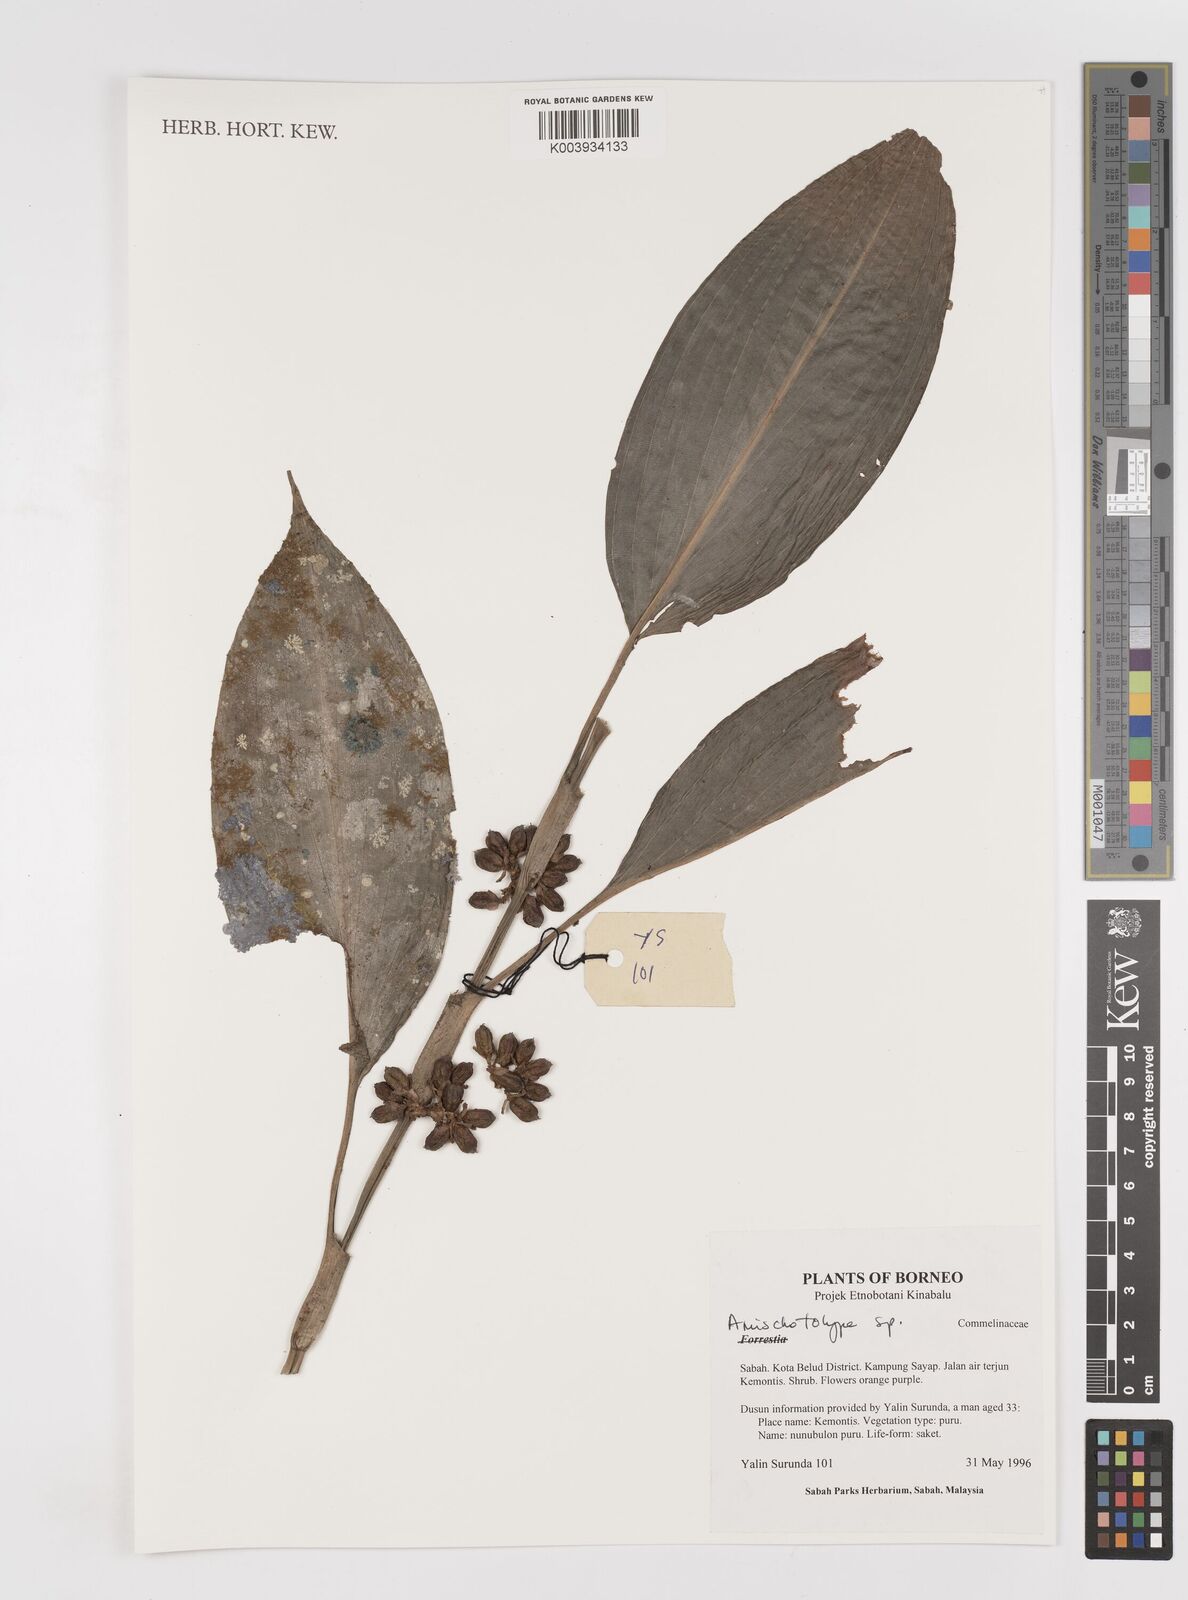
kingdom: Plantae
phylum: Tracheophyta
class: Liliopsida
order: Commelinales
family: Commelinaceae
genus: Amischotolype
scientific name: Amischotolype
